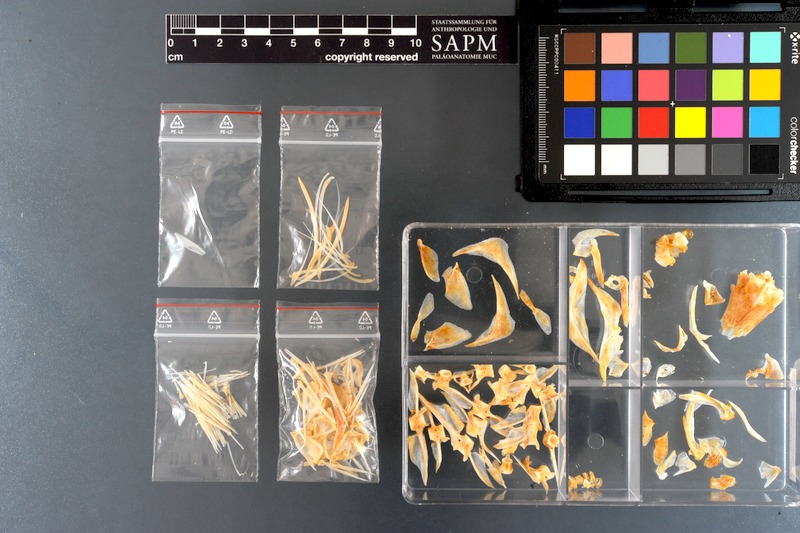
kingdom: Animalia
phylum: Chordata
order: Perciformes
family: Siganidae
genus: Siganus
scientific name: Siganus canaliculatus
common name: White-spotted spinefoot
